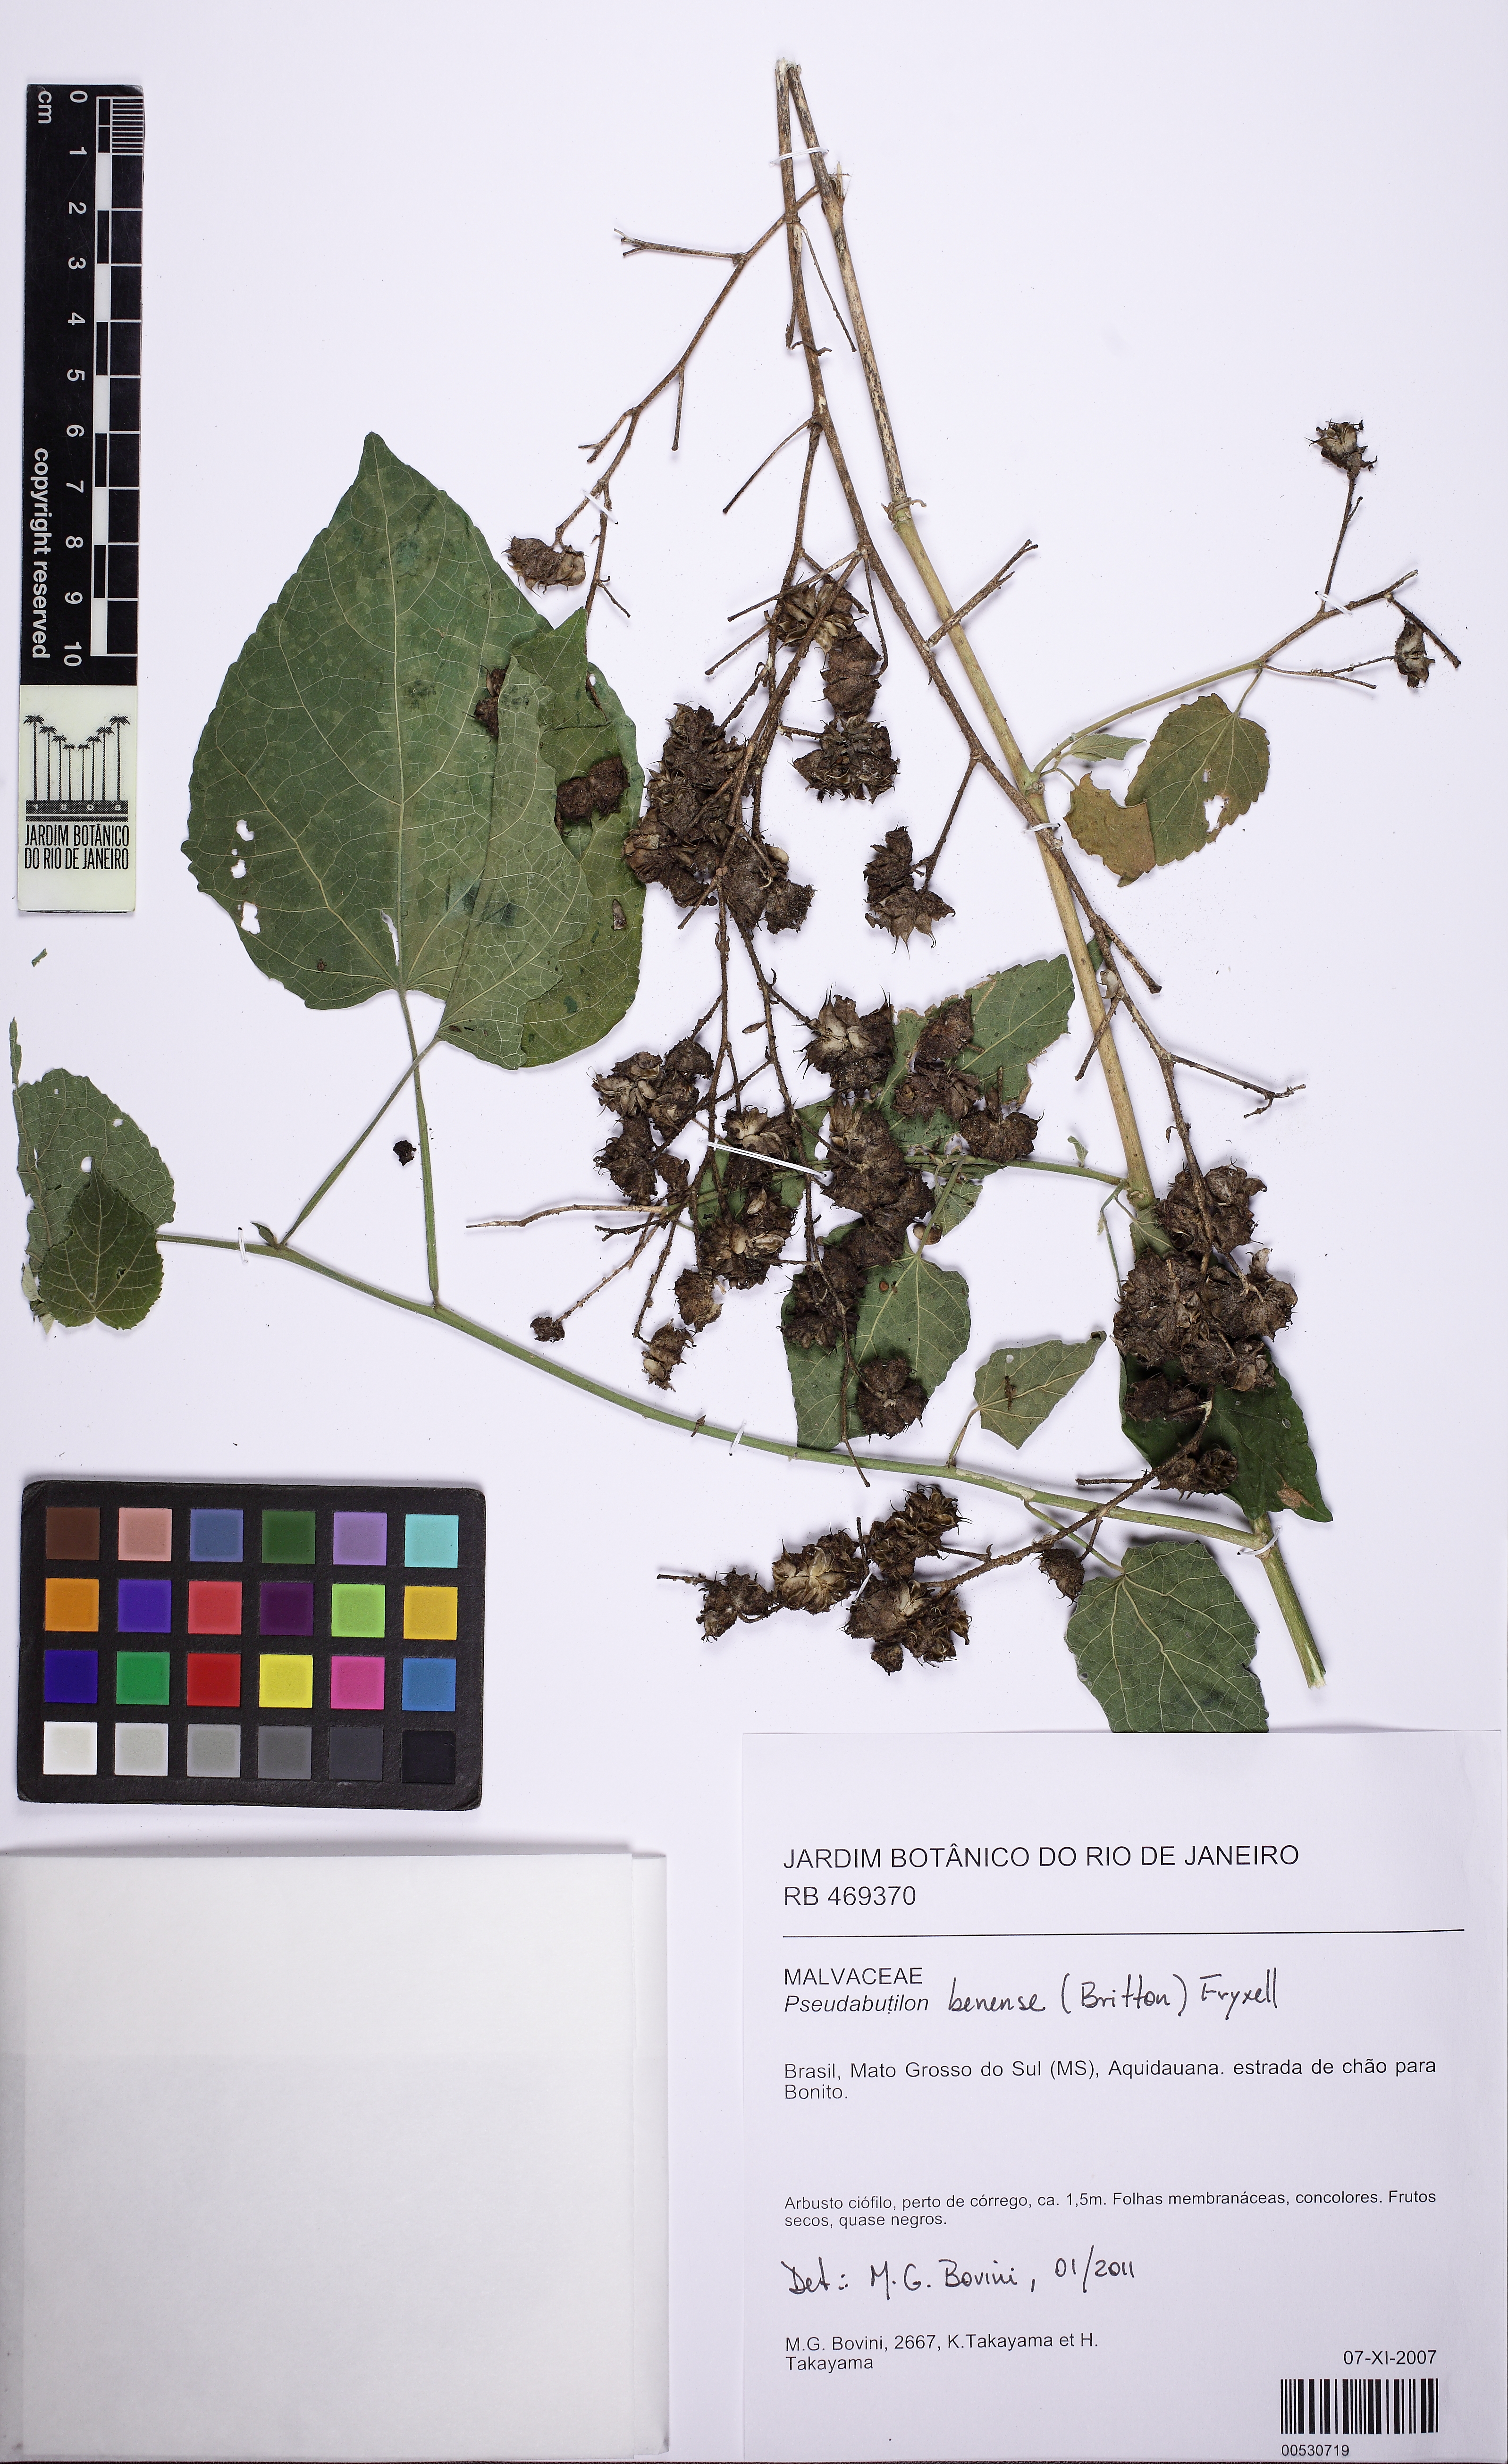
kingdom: Plantae
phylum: Tracheophyta
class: Magnoliopsida
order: Malvales
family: Malvaceae
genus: Pseudabutilon
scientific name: Pseudabutilon benense
